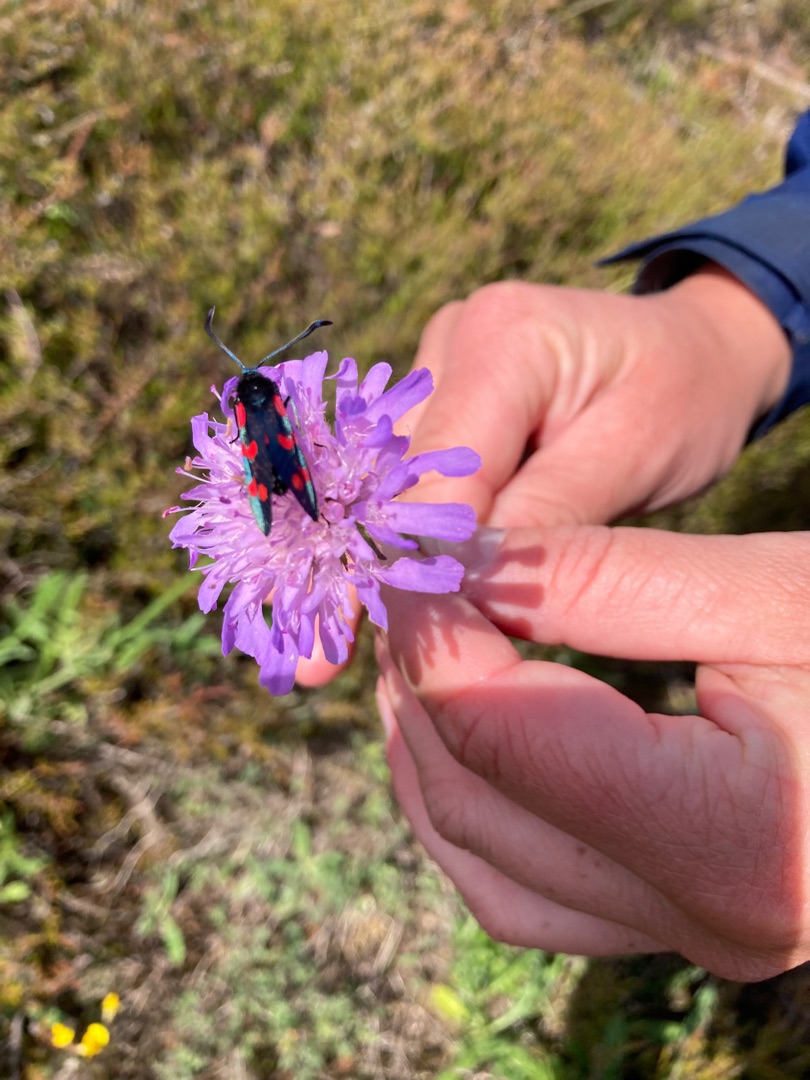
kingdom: Animalia
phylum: Arthropoda
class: Insecta
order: Lepidoptera
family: Zygaenidae
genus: Zygaena
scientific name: Zygaena filipendulae
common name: Seksplettet køllesværmer
